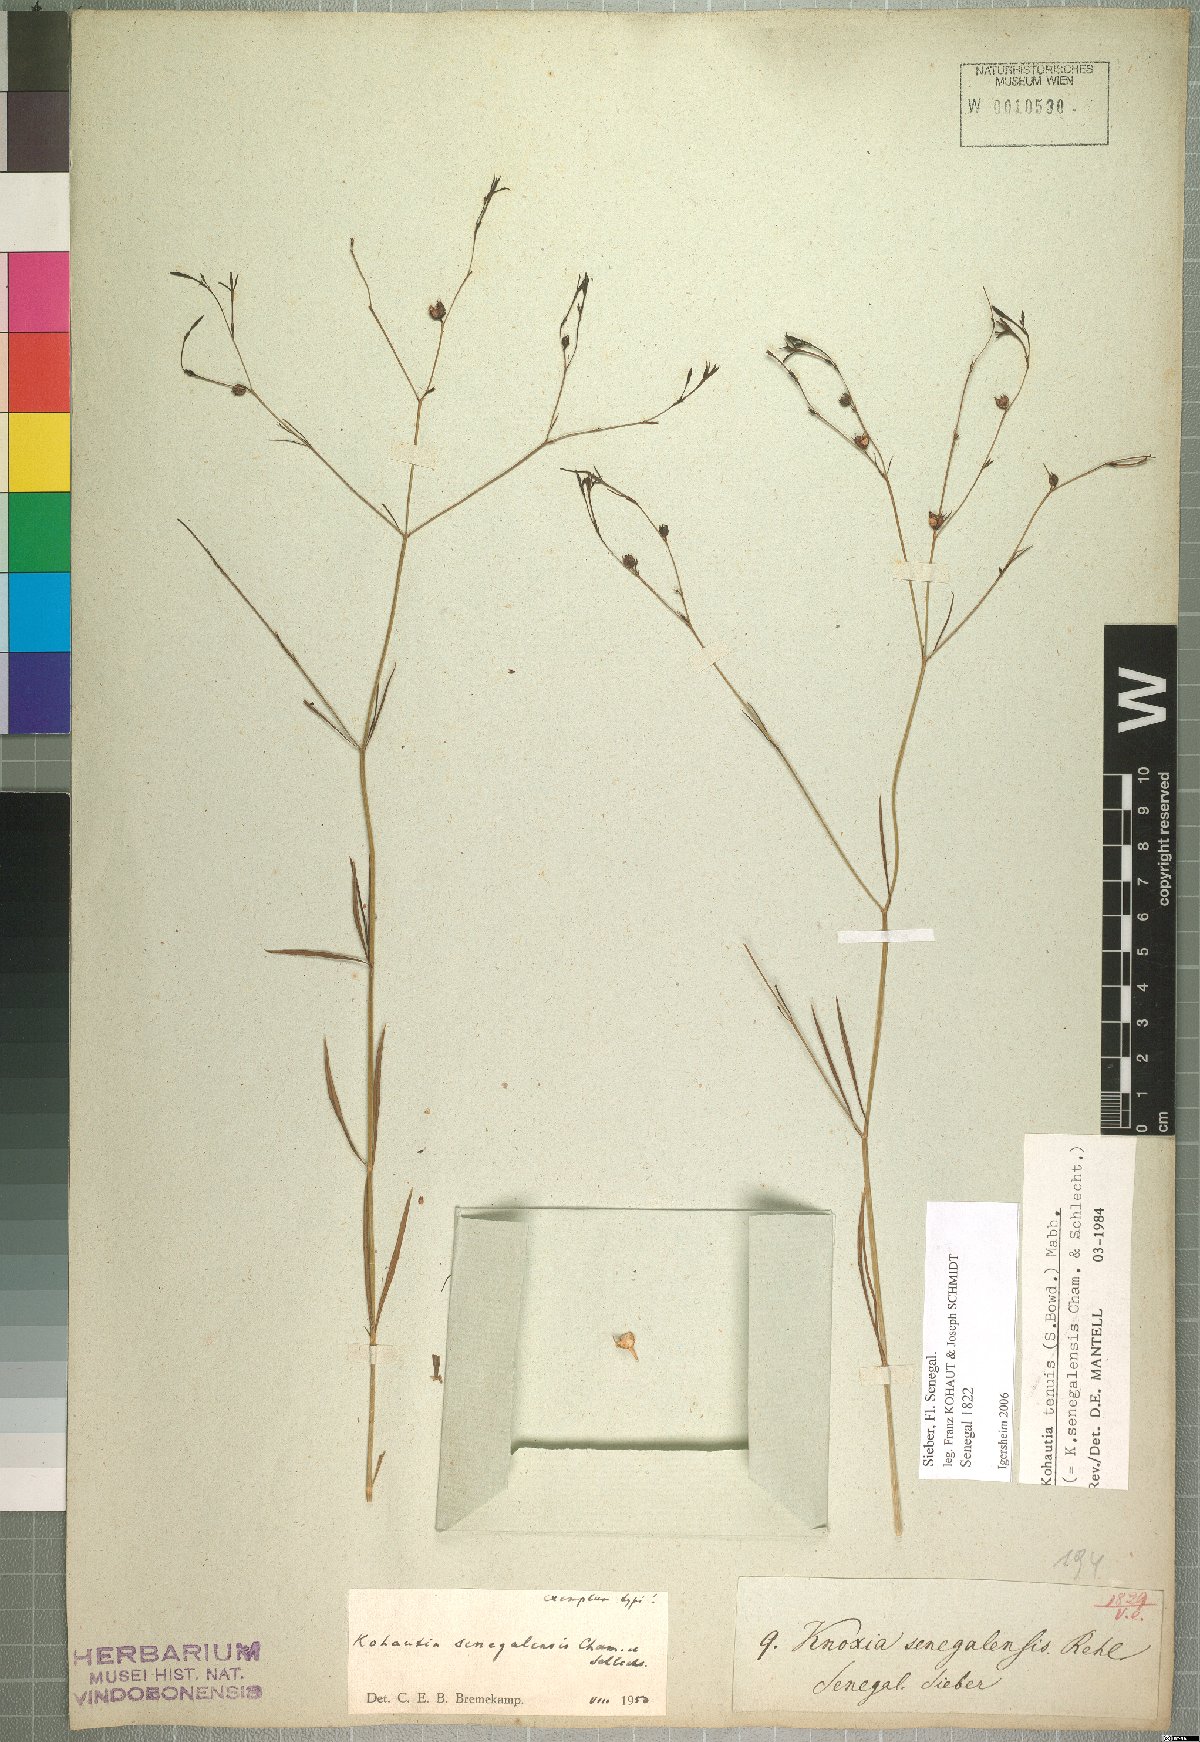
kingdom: Plantae
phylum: Tracheophyta
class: Magnoliopsida
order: Gentianales
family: Rubiaceae
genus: Kohautia
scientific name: Kohautia tenuis
